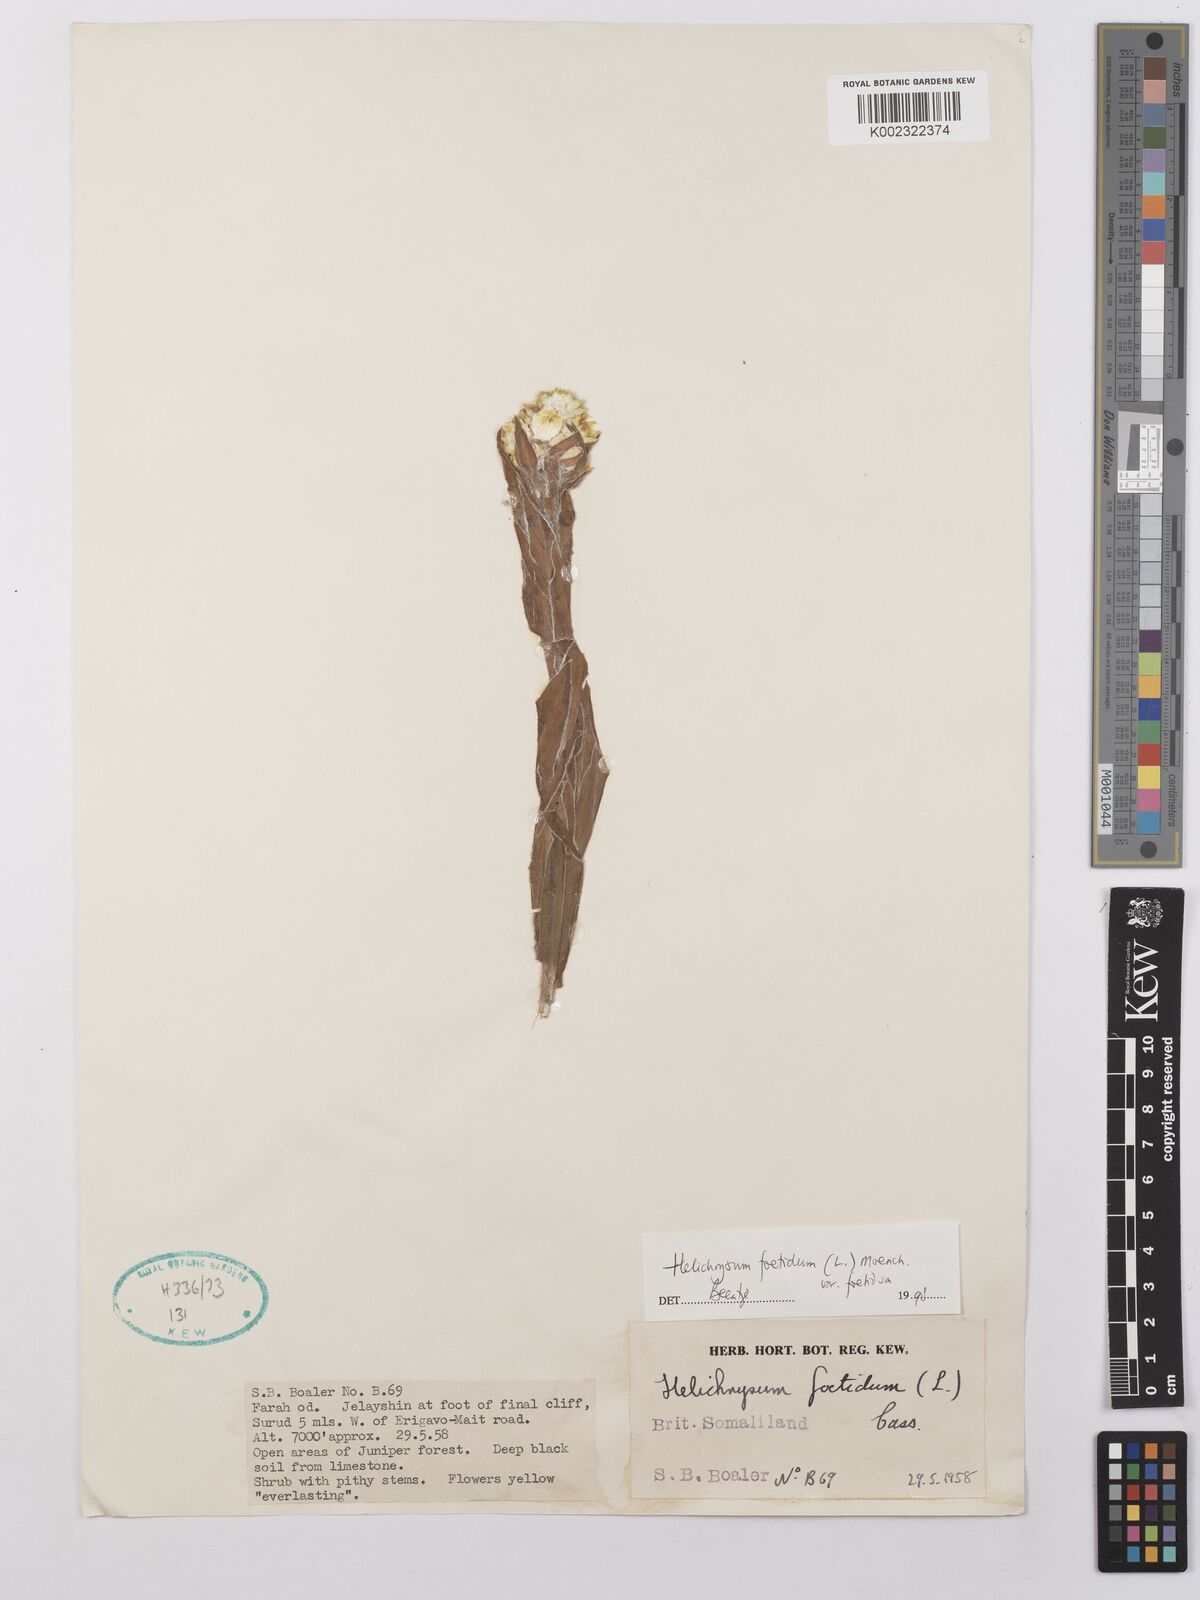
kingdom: Plantae
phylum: Tracheophyta
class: Magnoliopsida
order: Asterales
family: Asteraceae
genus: Helichrysum
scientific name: Helichrysum foetidum
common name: Stinking everlasting
